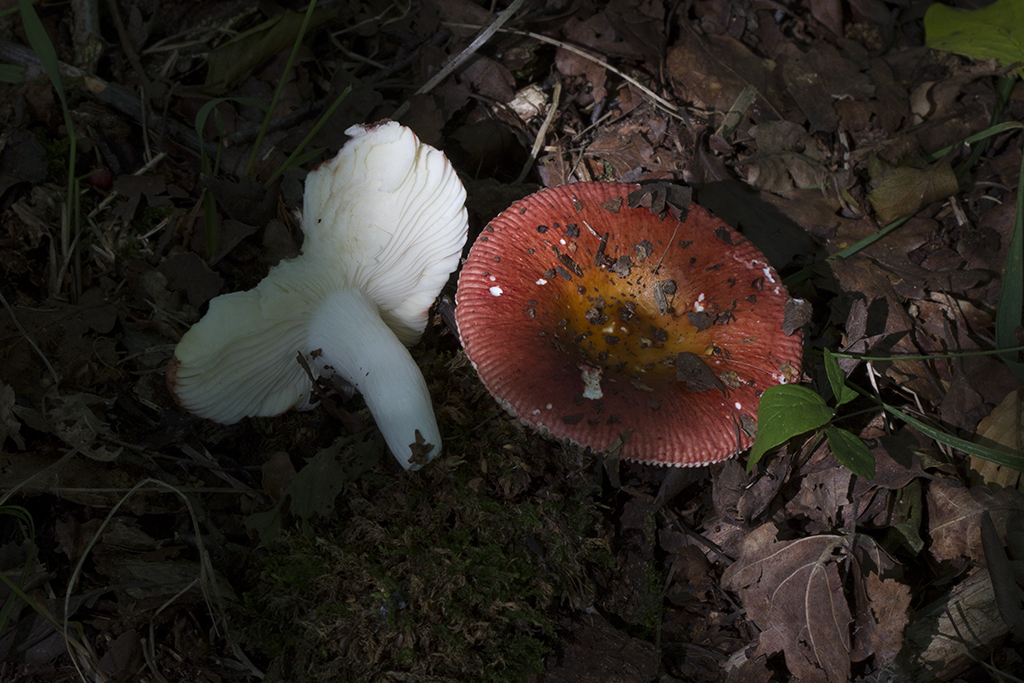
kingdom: Fungi
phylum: Basidiomycota
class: Agaricomycetes
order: Russulales
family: Russulaceae
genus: Russula
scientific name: Russula velenovskyi
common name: orangerød skørhat
